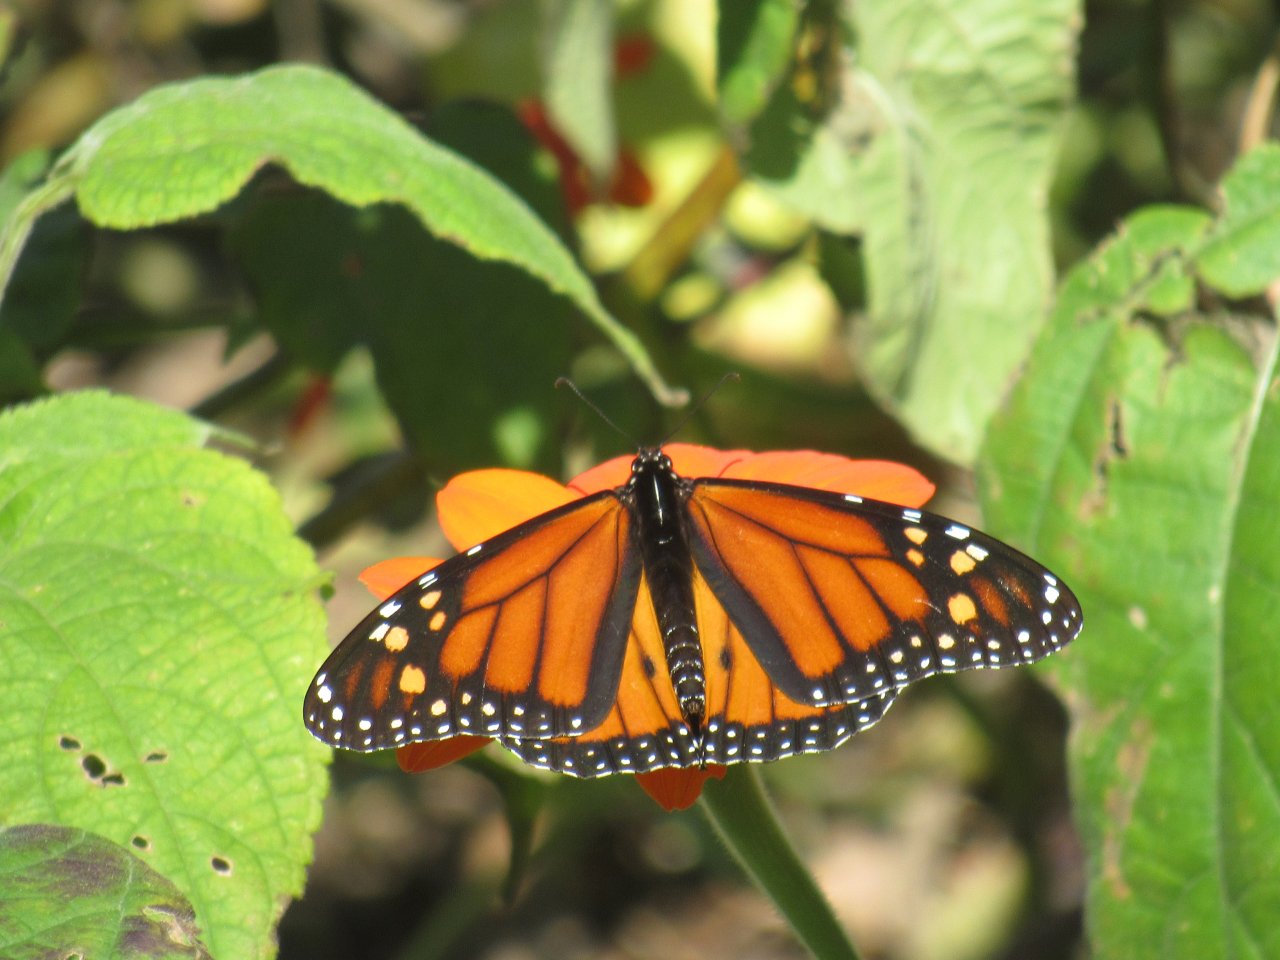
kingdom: Animalia
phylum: Arthropoda
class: Insecta
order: Lepidoptera
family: Nymphalidae
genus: Danaus
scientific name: Danaus plexippus
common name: Monarch
